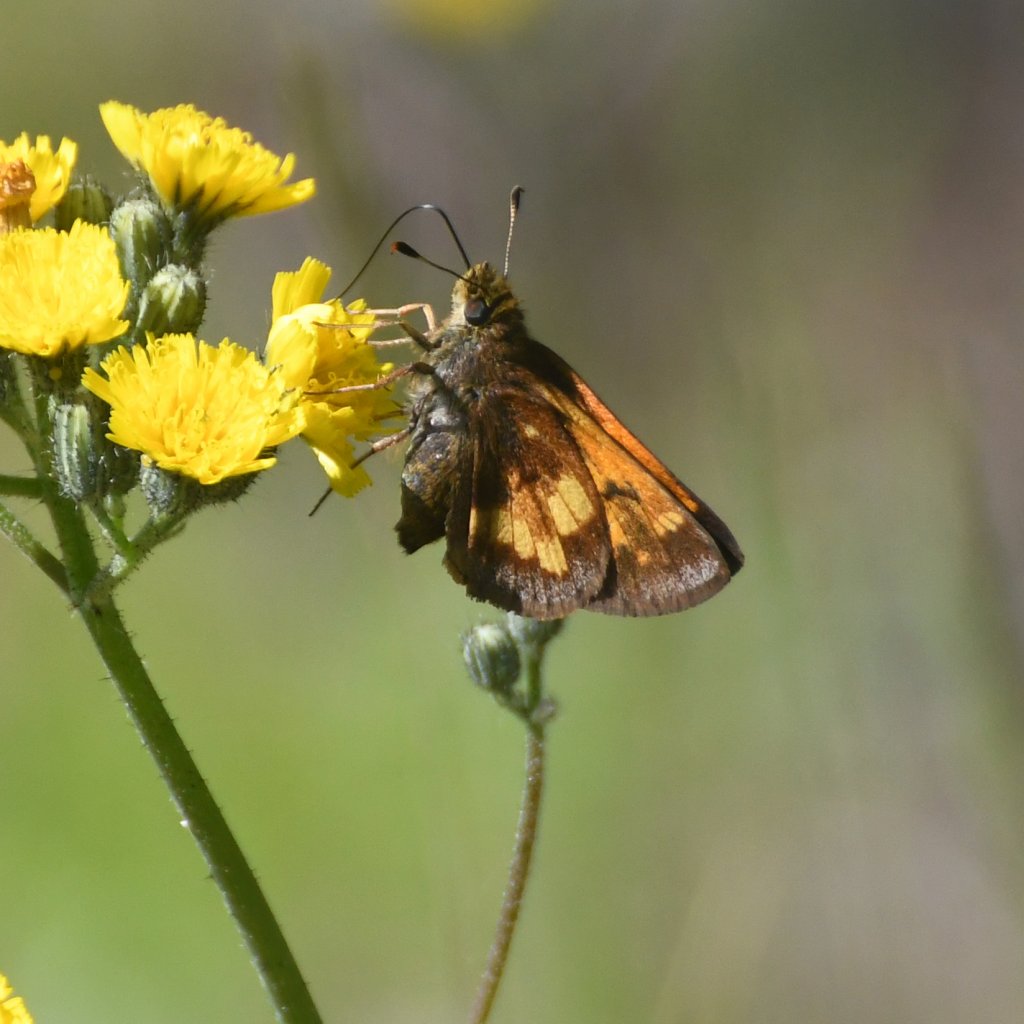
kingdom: Animalia
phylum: Arthropoda
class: Insecta
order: Lepidoptera
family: Hesperiidae
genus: Lon
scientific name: Lon hobomok
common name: Hobomok Skipper
